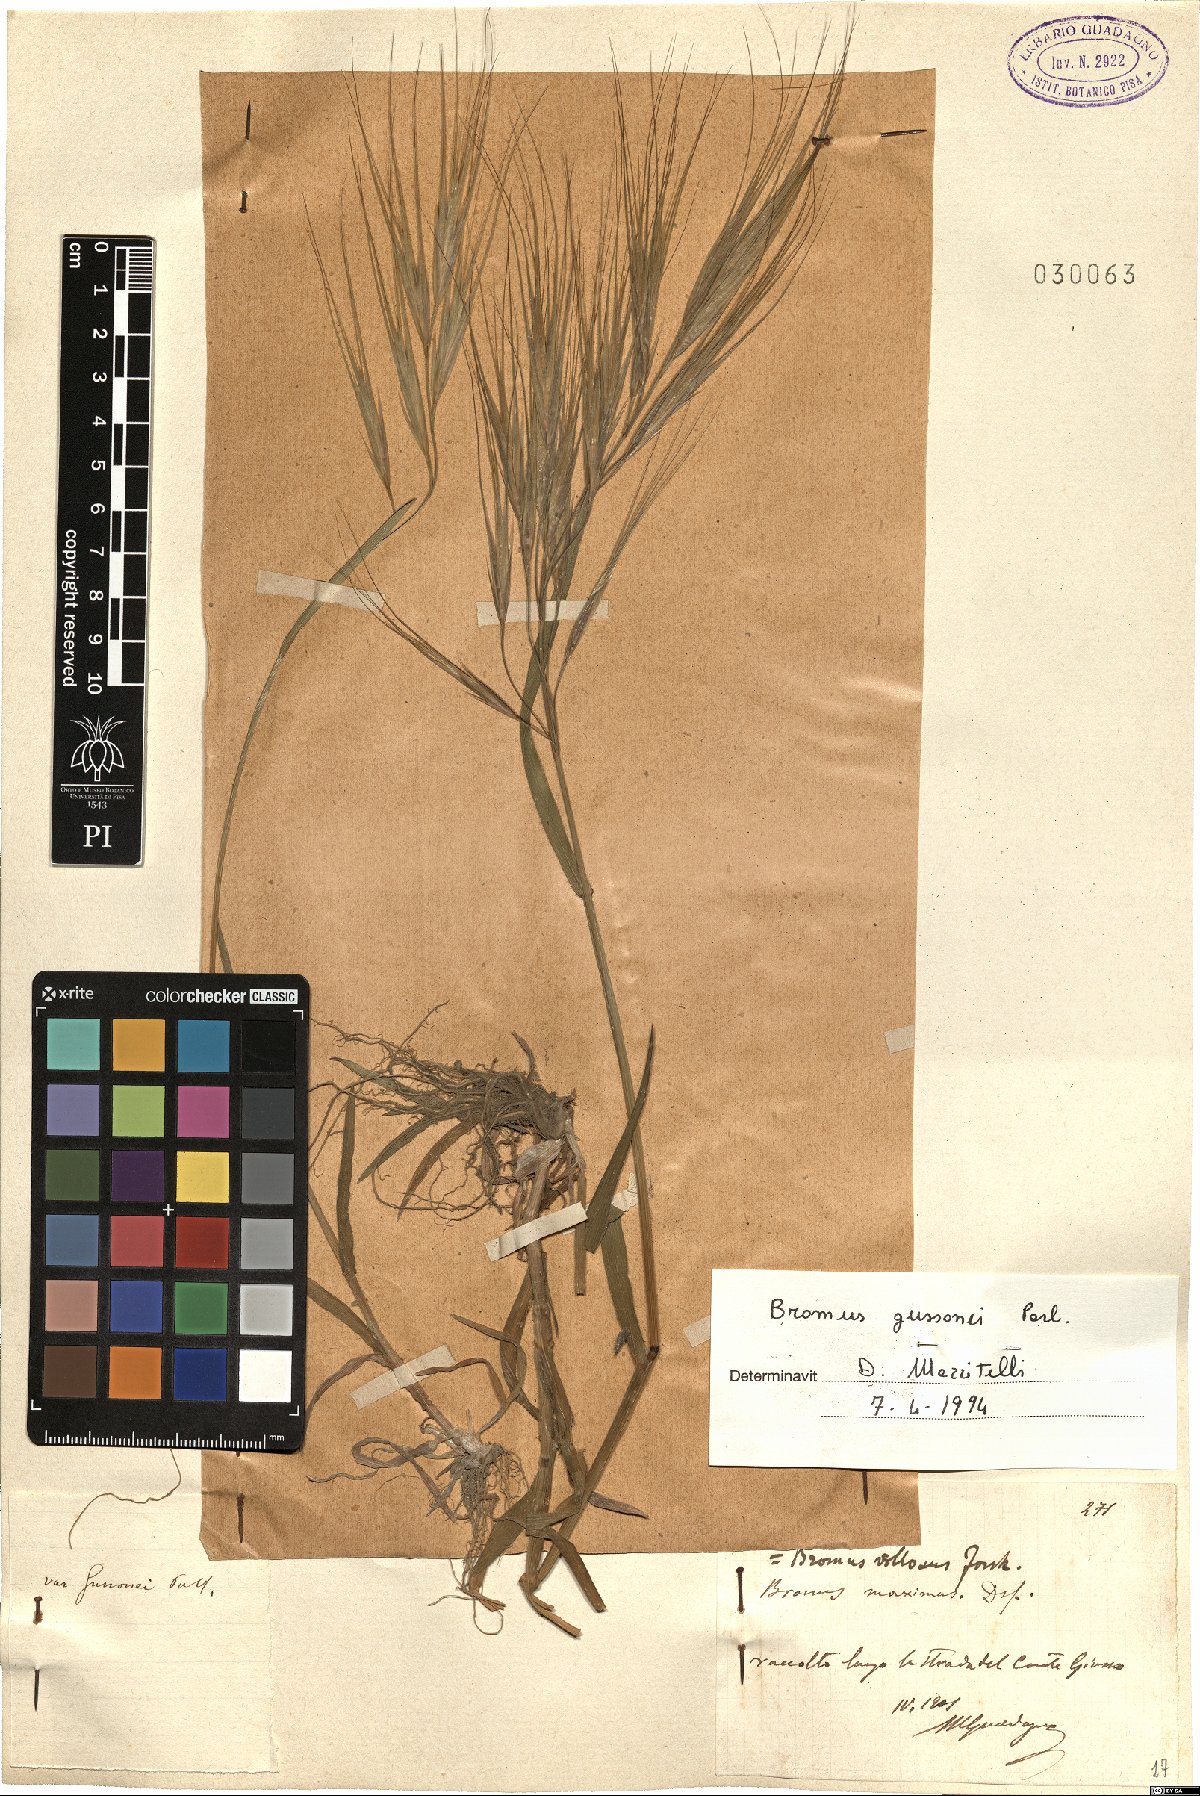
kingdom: Plantae
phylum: Tracheophyta
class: Liliopsida
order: Poales
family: Poaceae
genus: Bromus
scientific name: Bromus diandrus
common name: Ripgut brome
